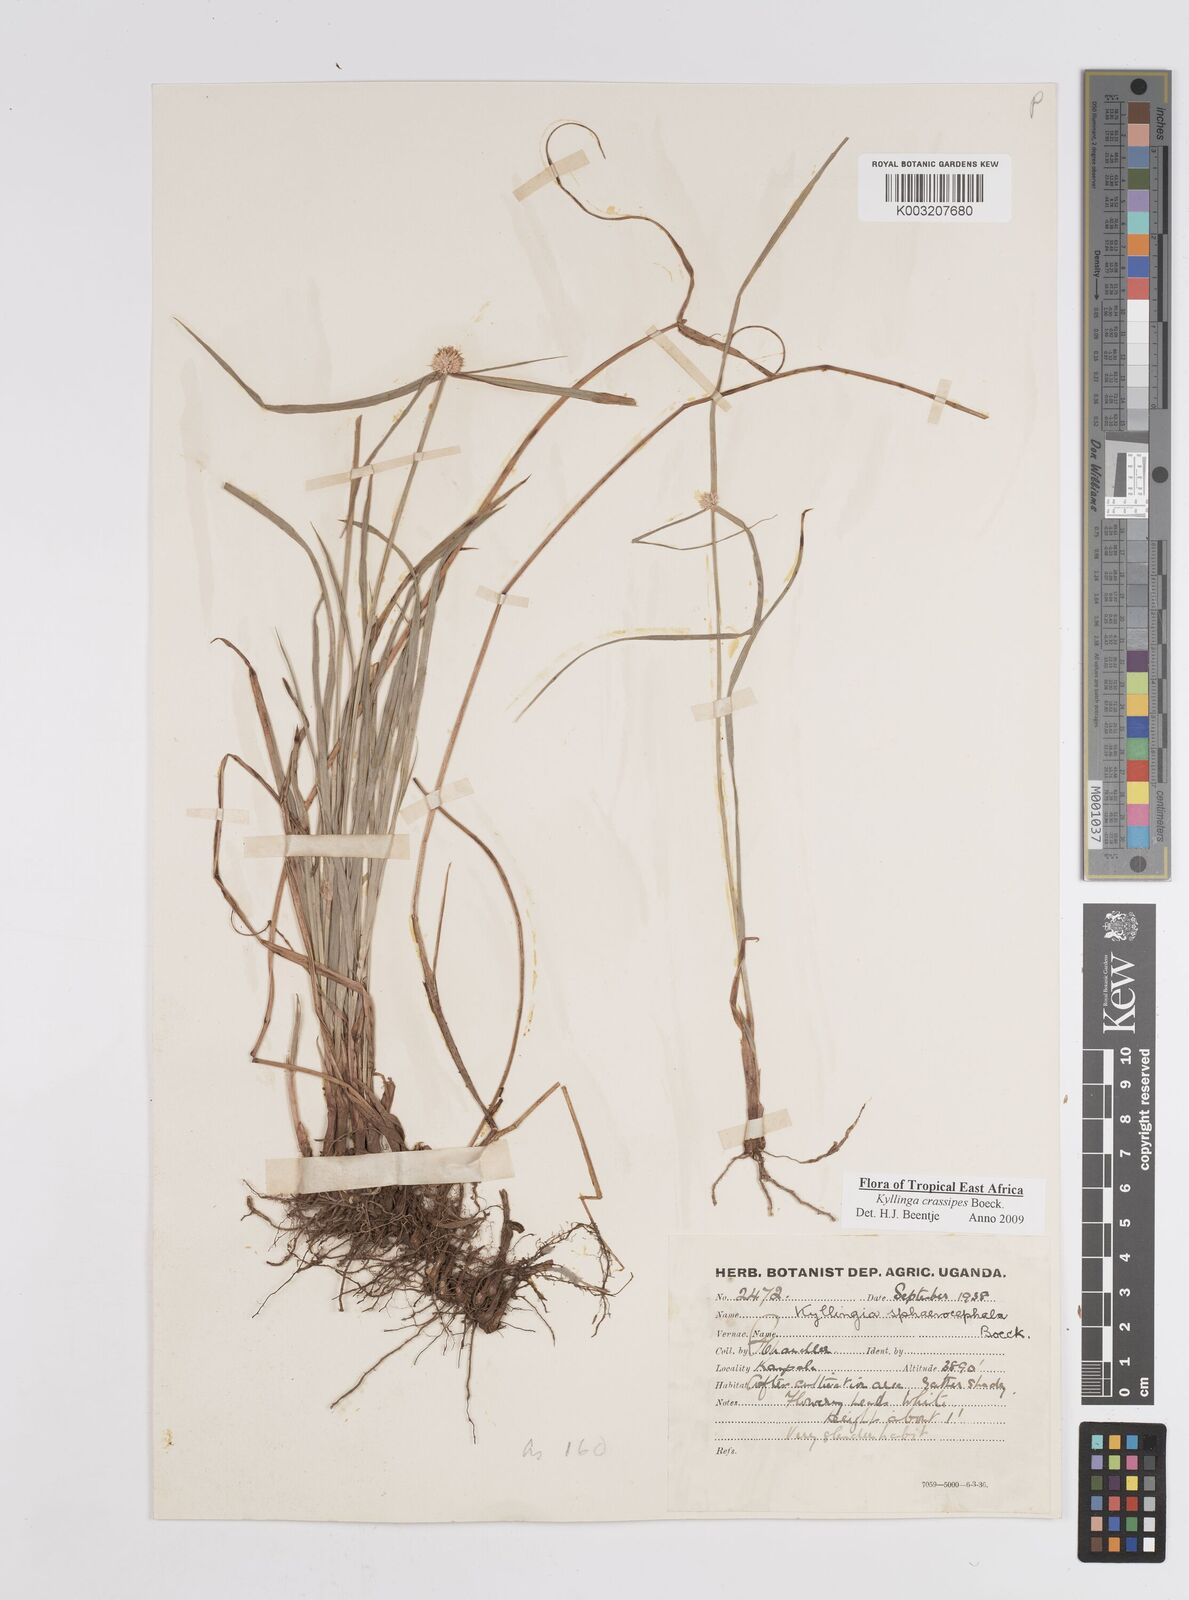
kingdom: Plantae
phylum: Tracheophyta
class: Liliopsida
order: Poales
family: Cyperaceae
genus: Cyperus
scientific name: Cyperus crassipes
